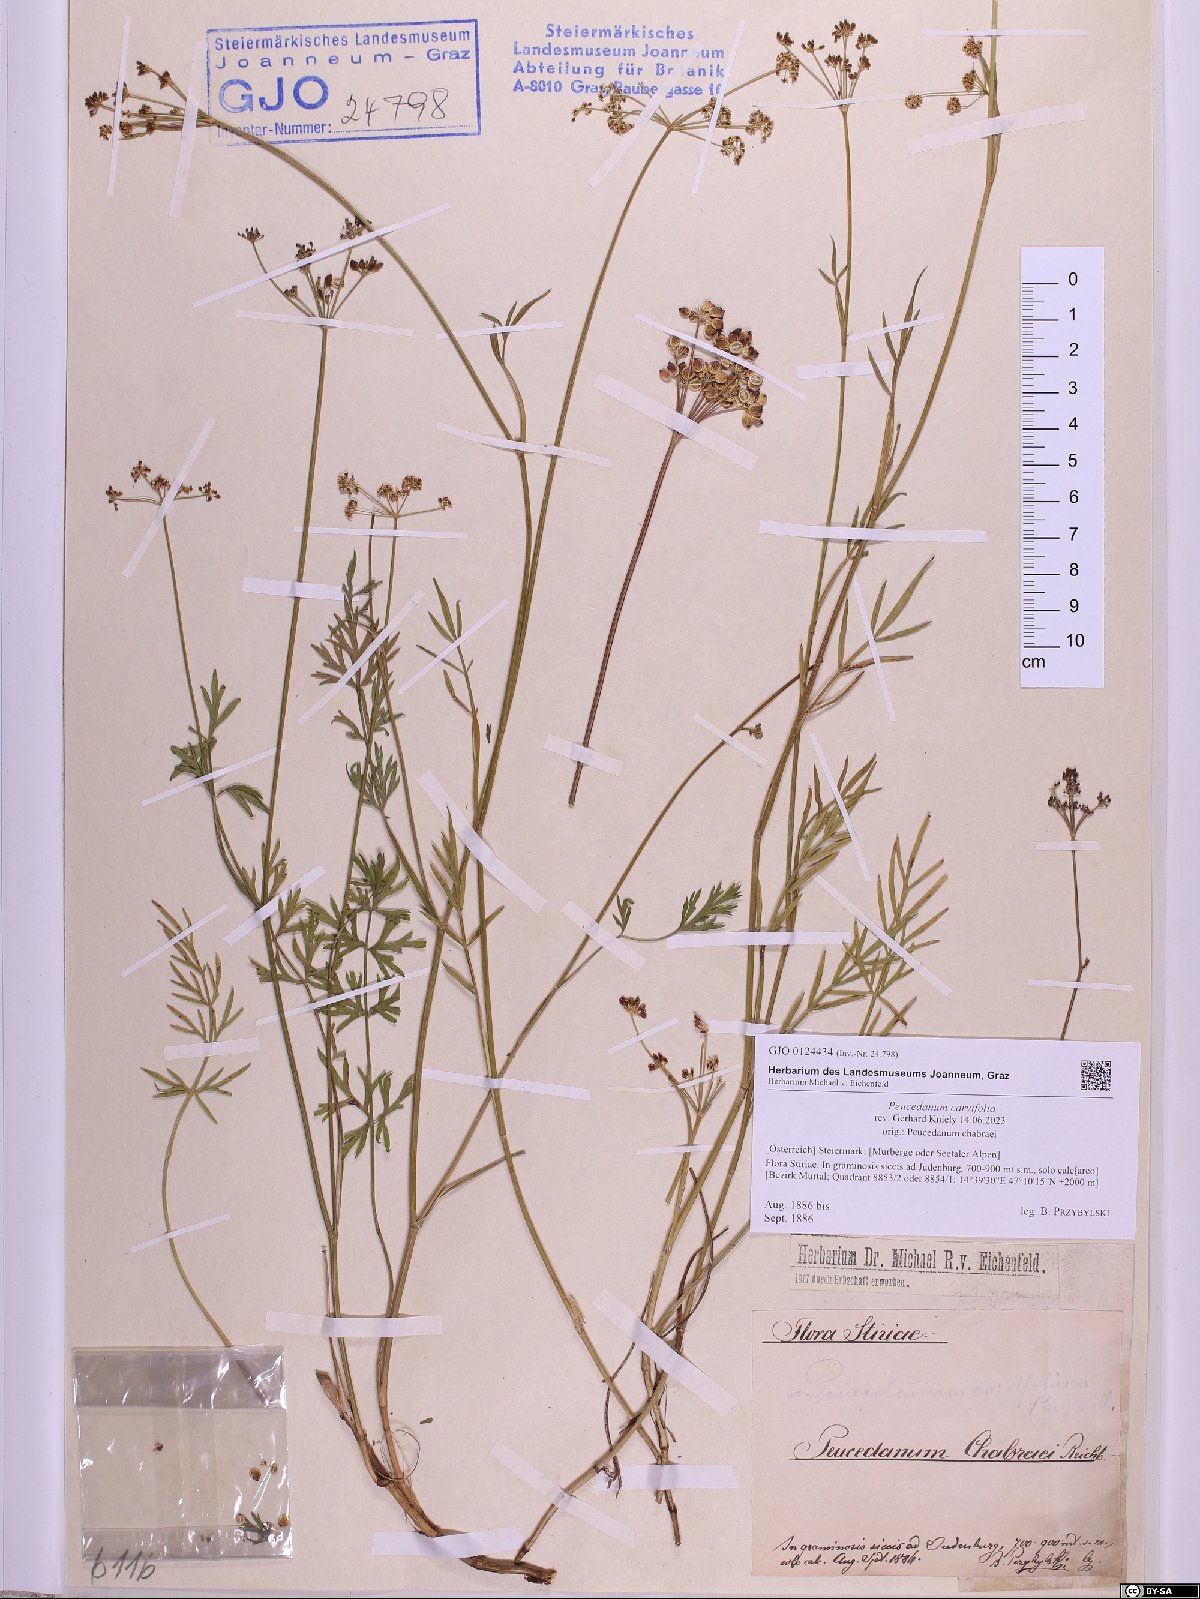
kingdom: Plantae
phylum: Tracheophyta
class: Magnoliopsida
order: Apiales
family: Apiaceae
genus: Dichoropetalum
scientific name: Dichoropetalum carvifolia
